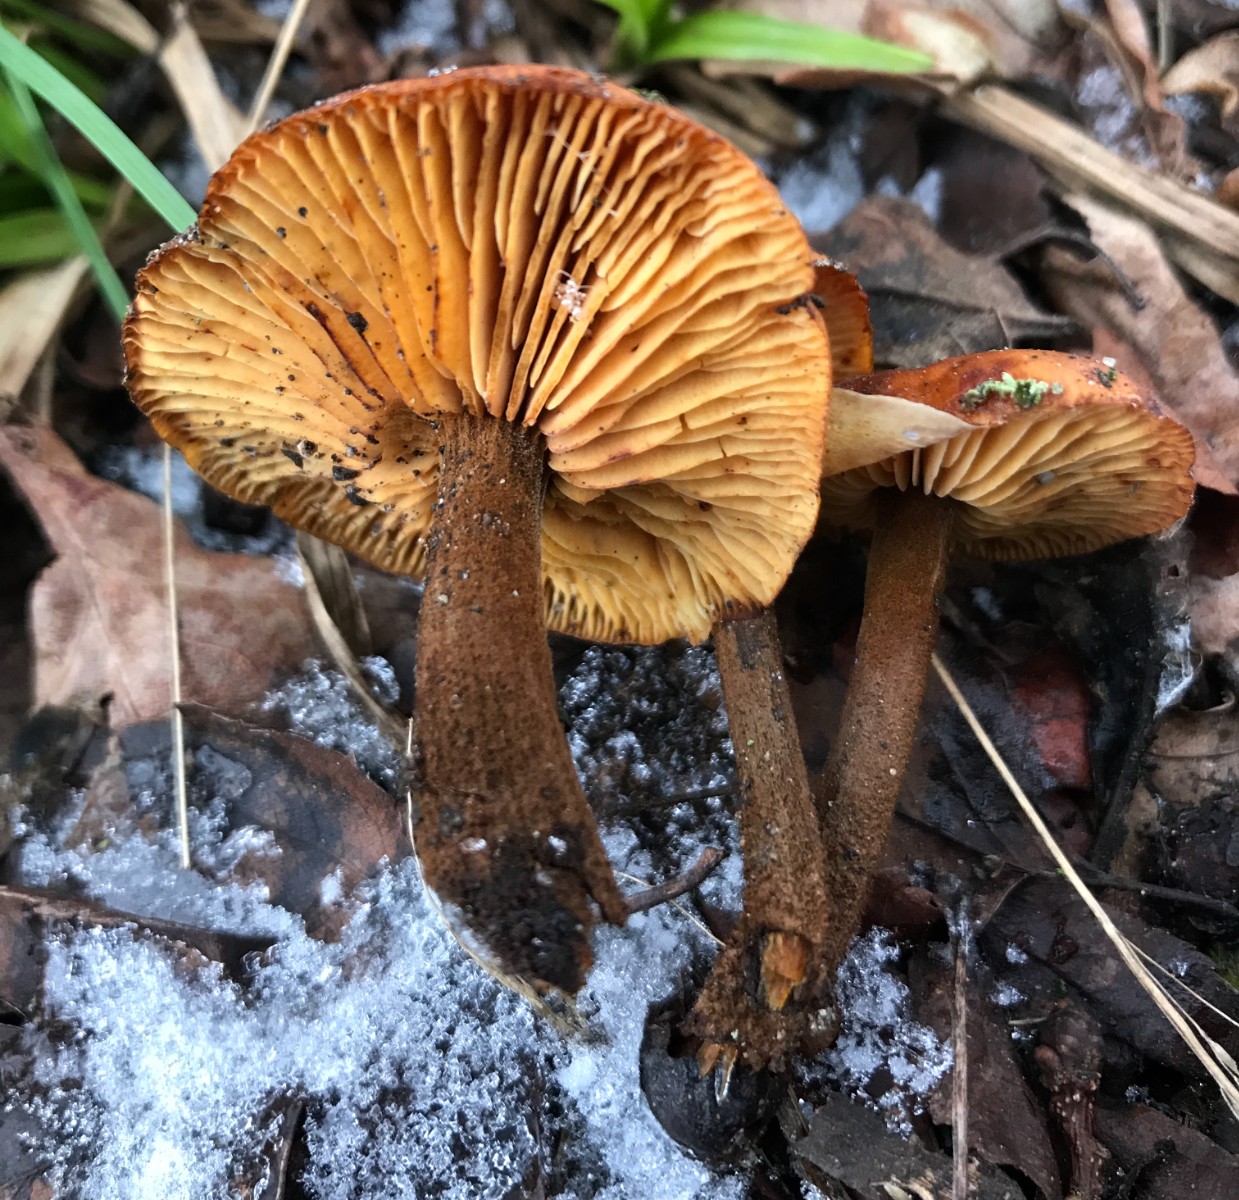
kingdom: Fungi
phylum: Basidiomycota
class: Agaricomycetes
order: Agaricales
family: Physalacriaceae
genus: Flammulina
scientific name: Flammulina velutipes
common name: gul fløjlsfod
